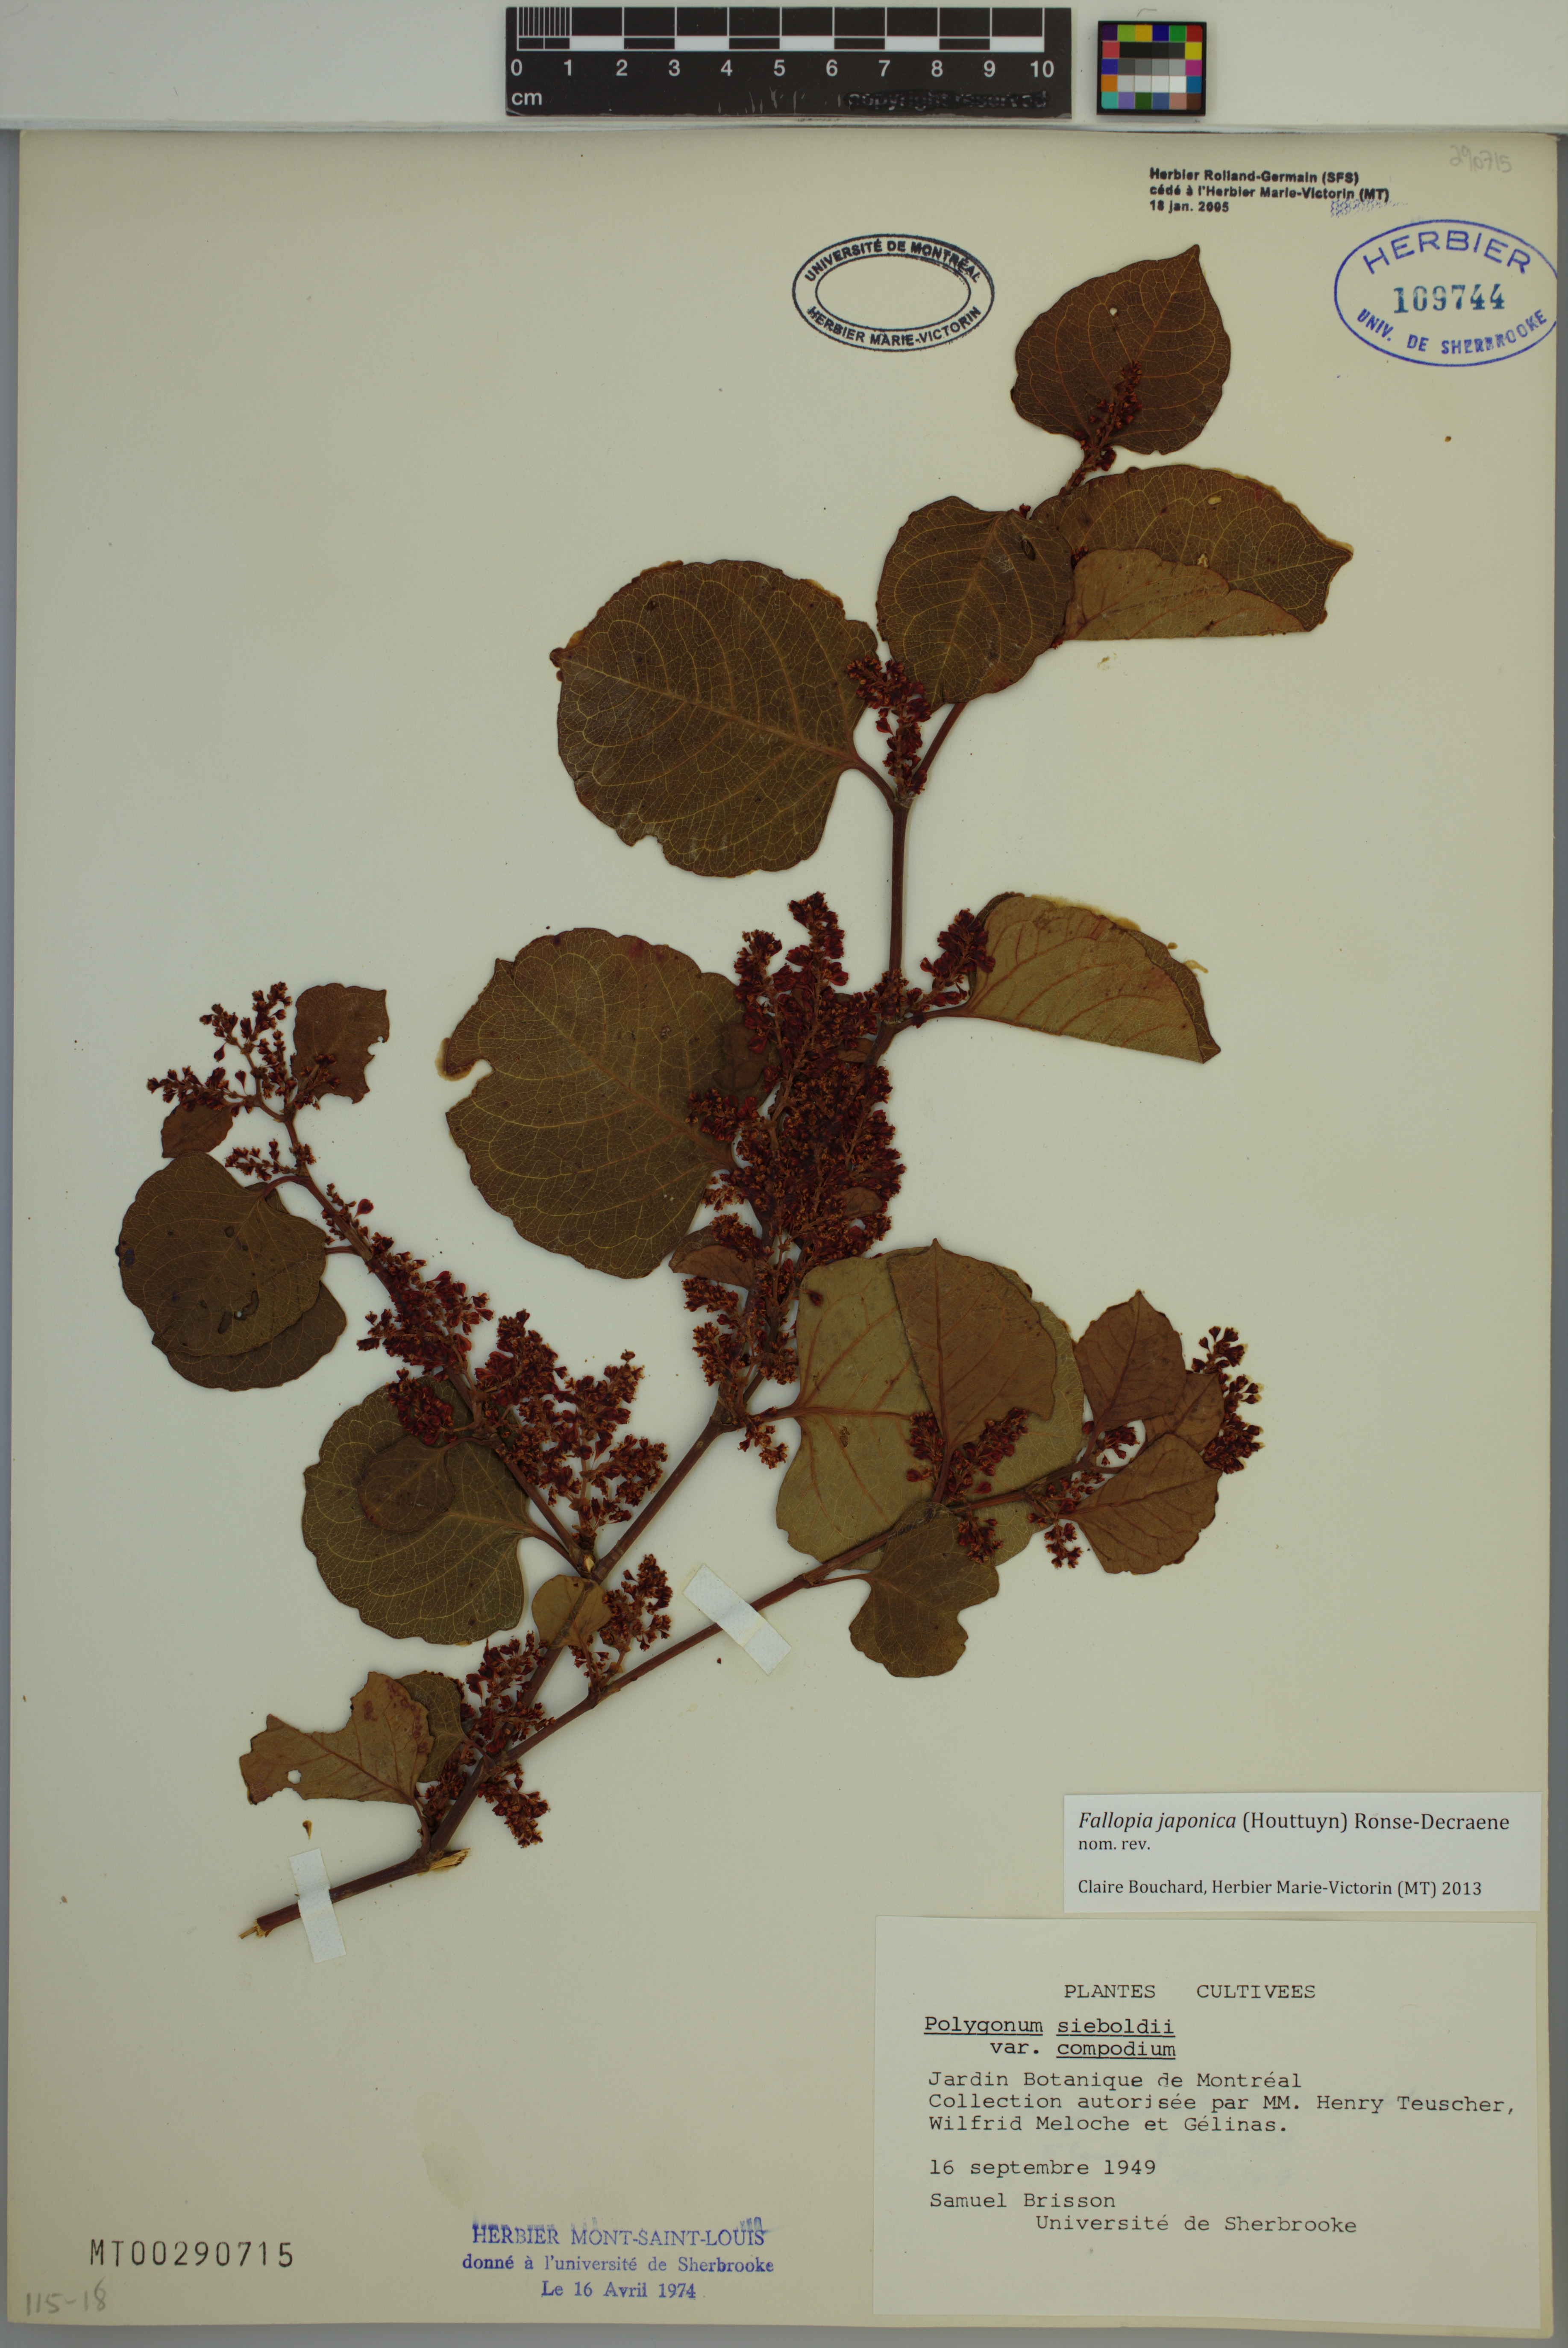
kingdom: Plantae
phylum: Tracheophyta
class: Magnoliopsida
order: Caryophyllales
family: Polygonaceae
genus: Reynoutria
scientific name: Reynoutria japonica
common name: Japanese knotweed
